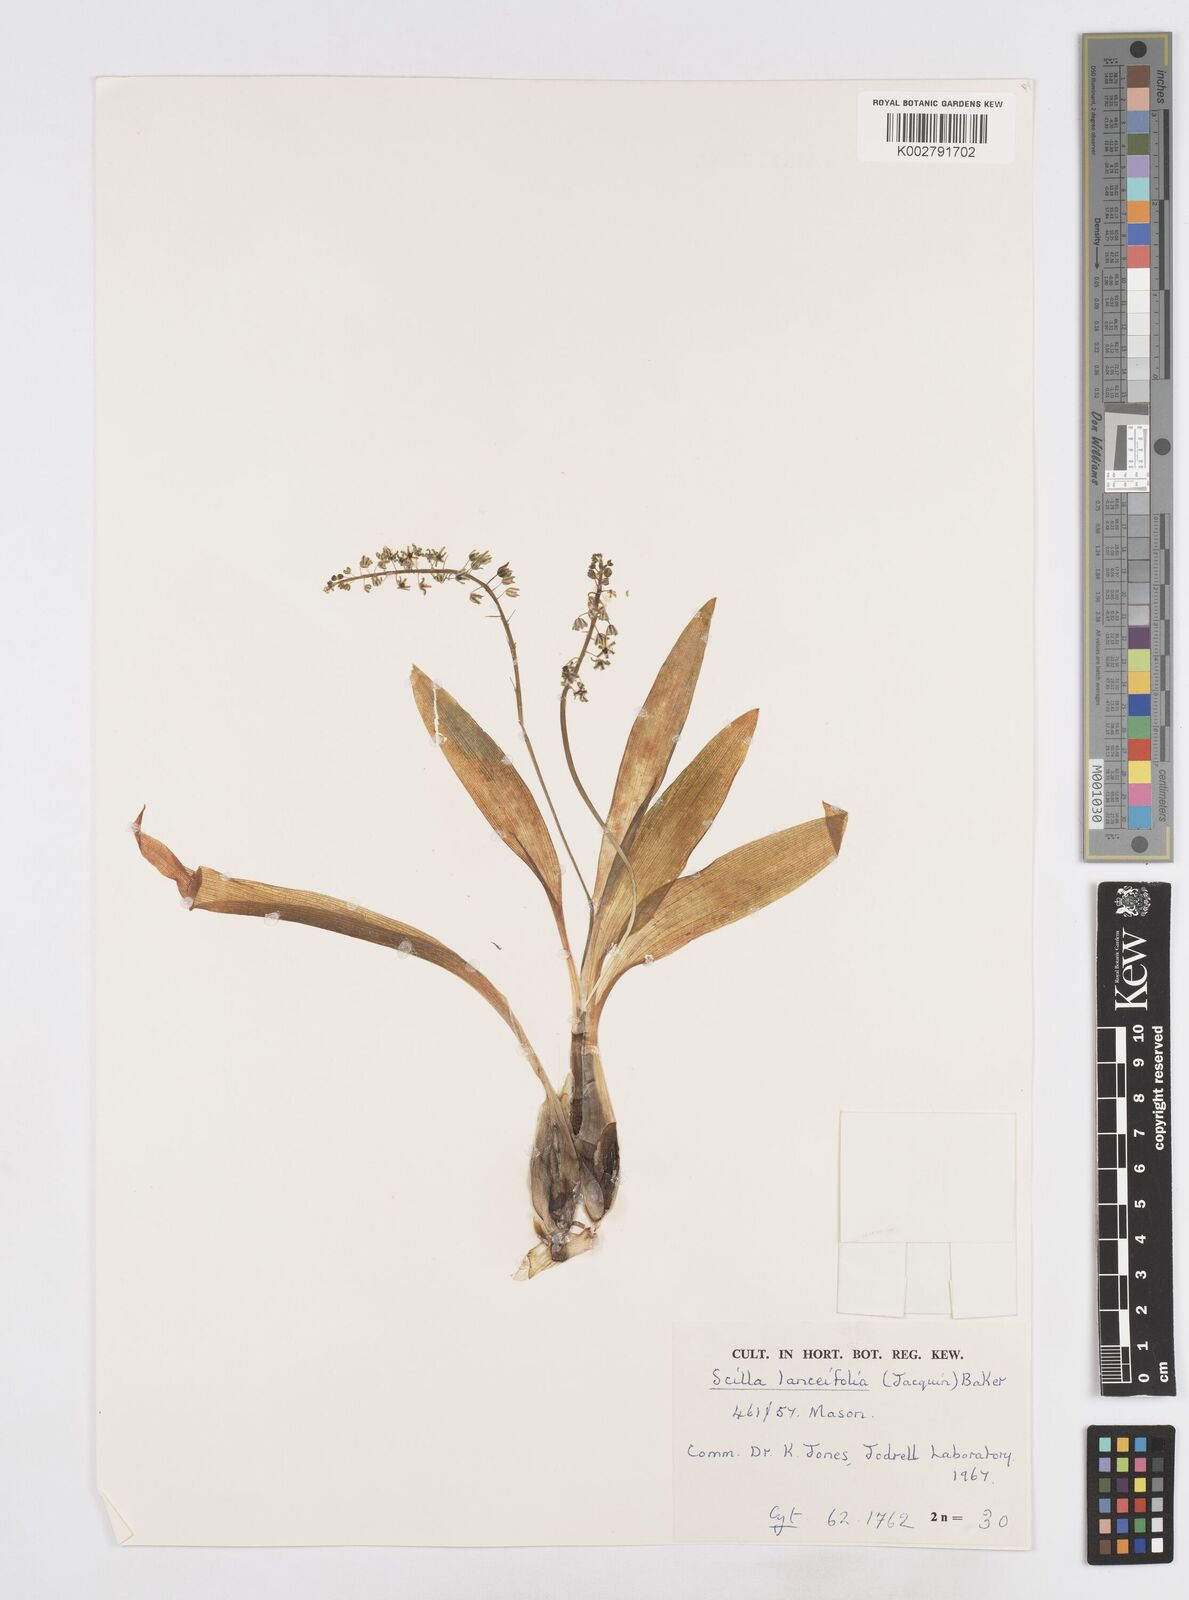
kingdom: Plantae
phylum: Tracheophyta
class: Liliopsida
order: Asparagales
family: Asparagaceae
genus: Ledebouria
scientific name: Ledebouria revoluta
